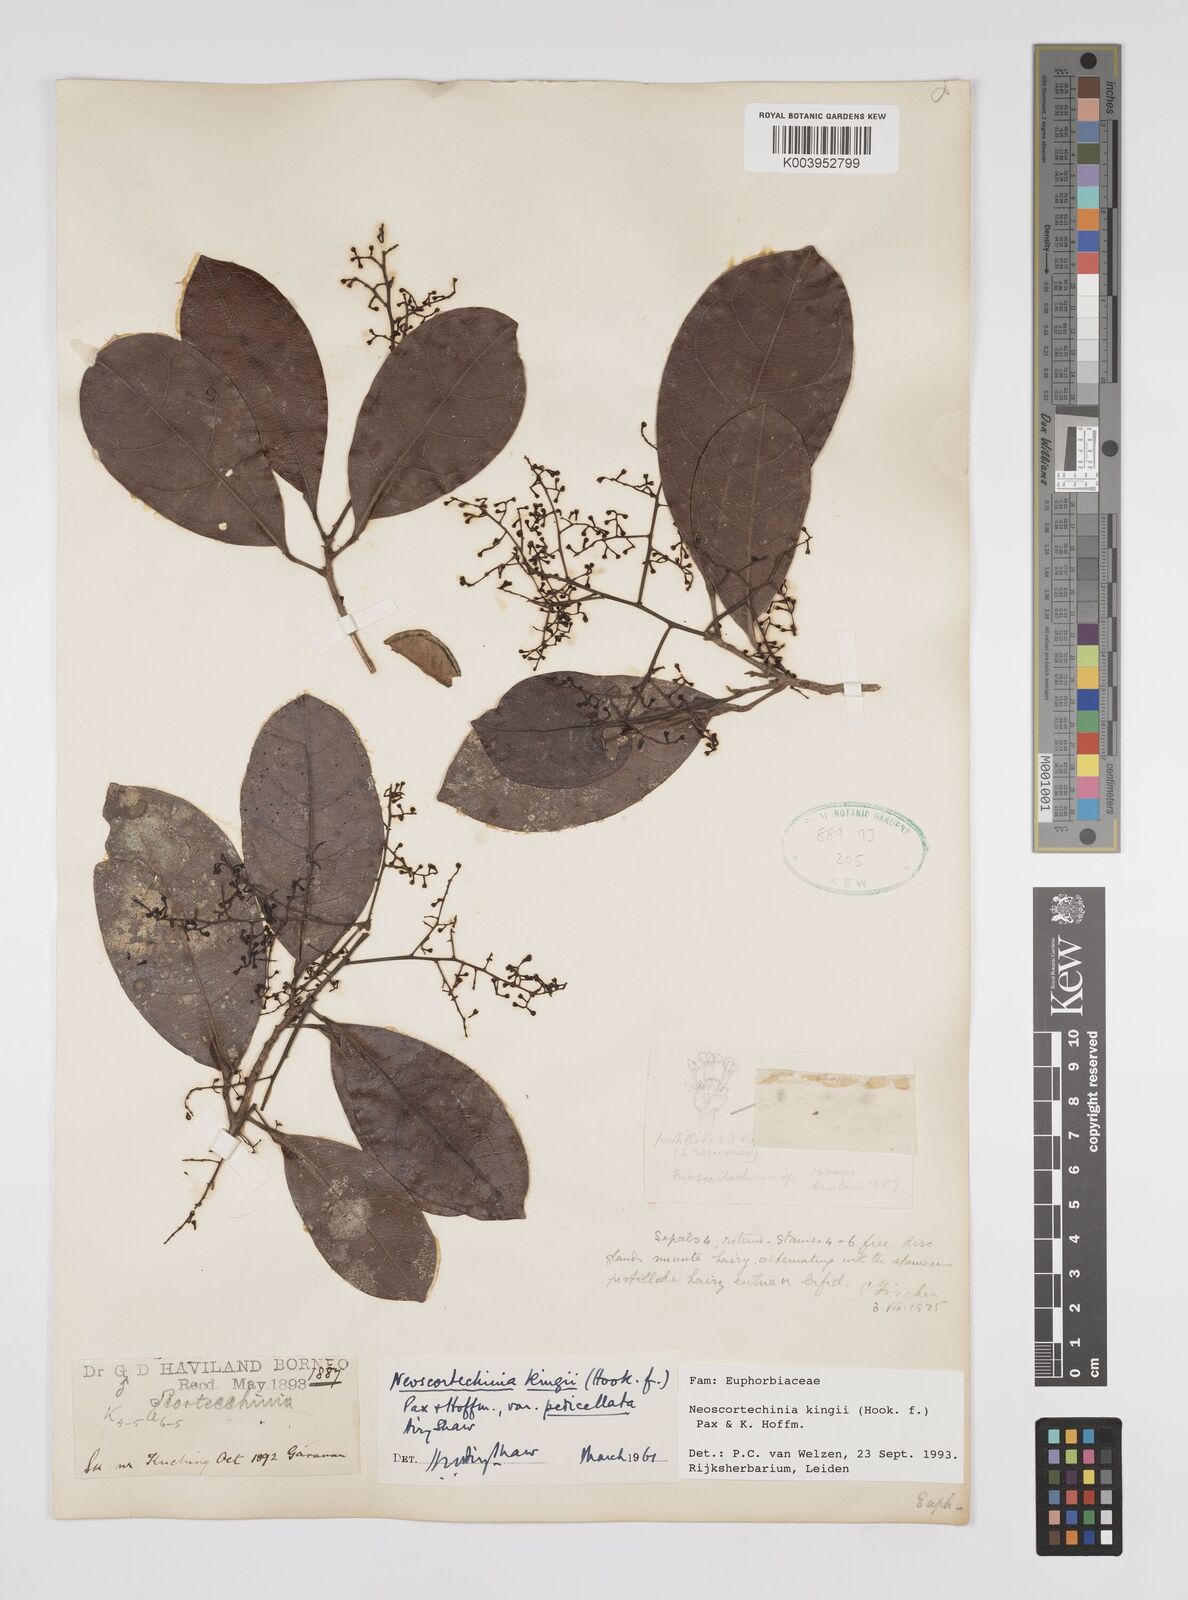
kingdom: Plantae
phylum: Tracheophyta
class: Magnoliopsida
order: Malpighiales
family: Euphorbiaceae
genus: Neoscortechinia
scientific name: Neoscortechinia kingii
